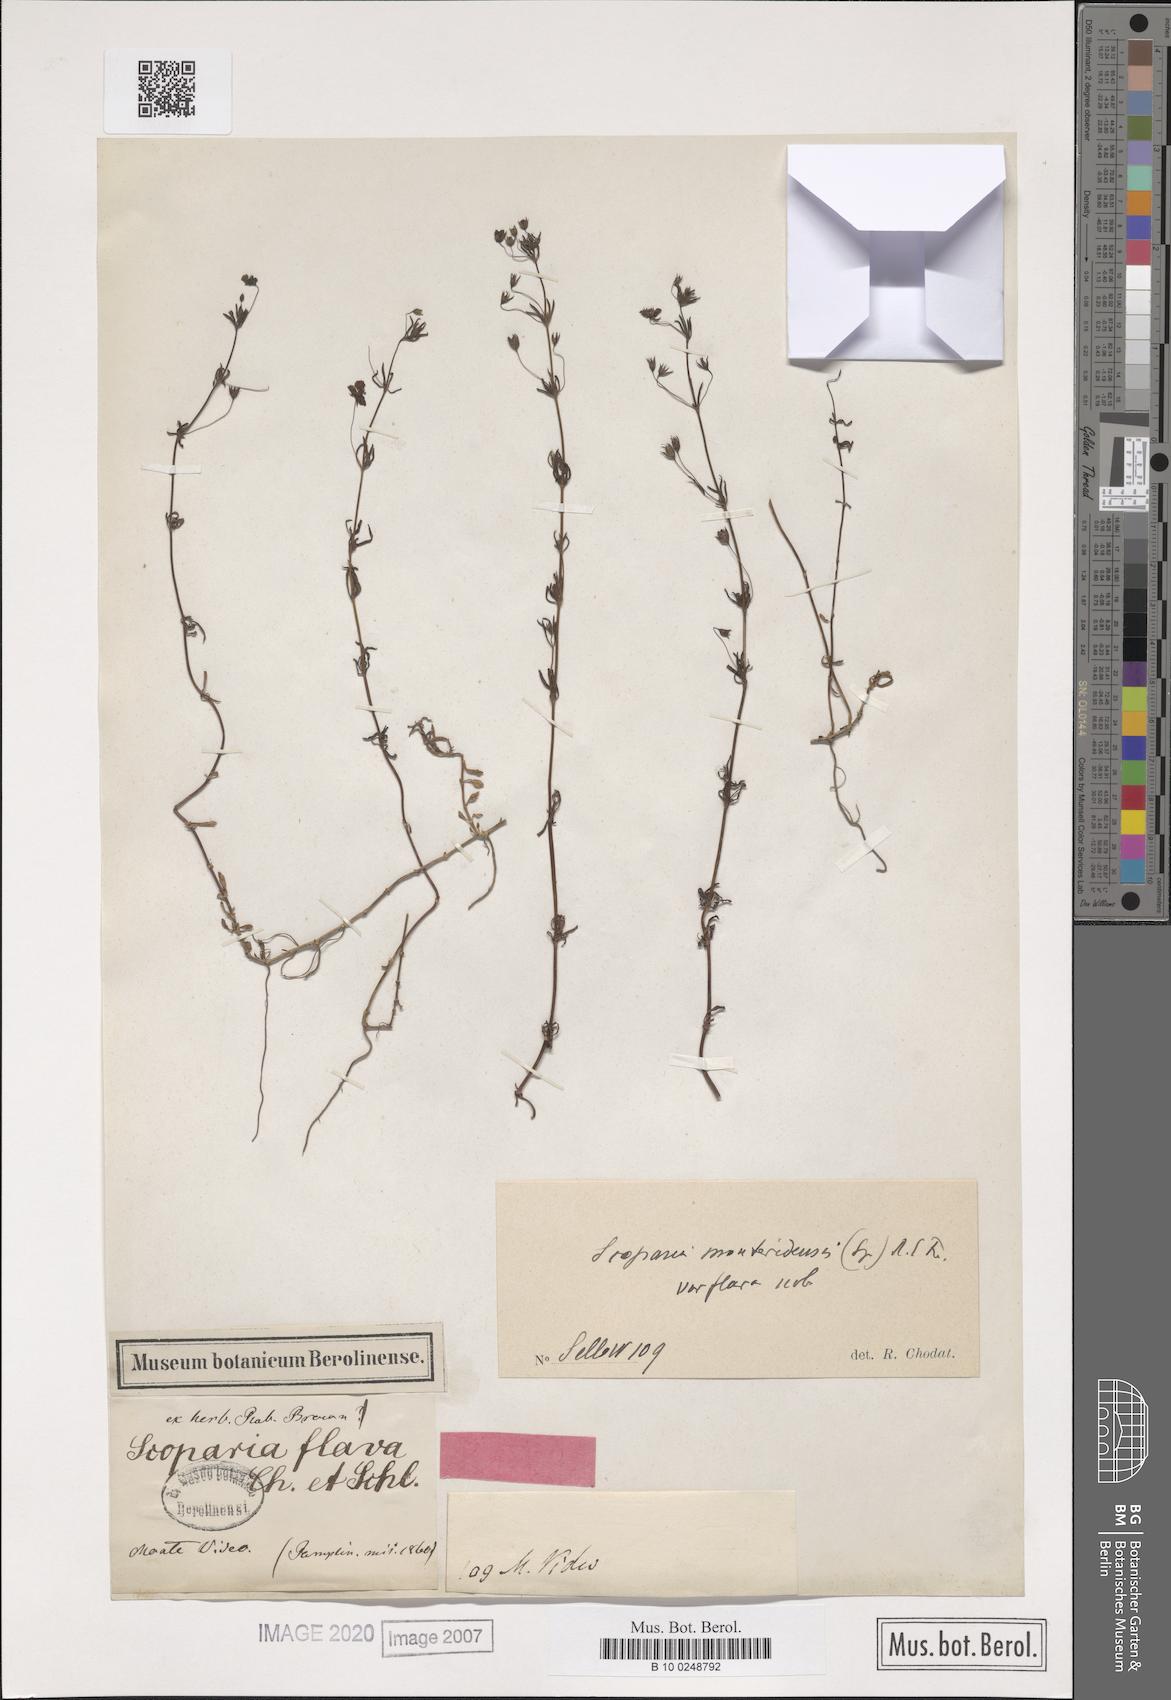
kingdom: Plantae
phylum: Tracheophyta
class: Magnoliopsida
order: Lamiales
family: Plantaginaceae
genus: Scoparia
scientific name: Scoparia montevidensis
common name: Broomwort
